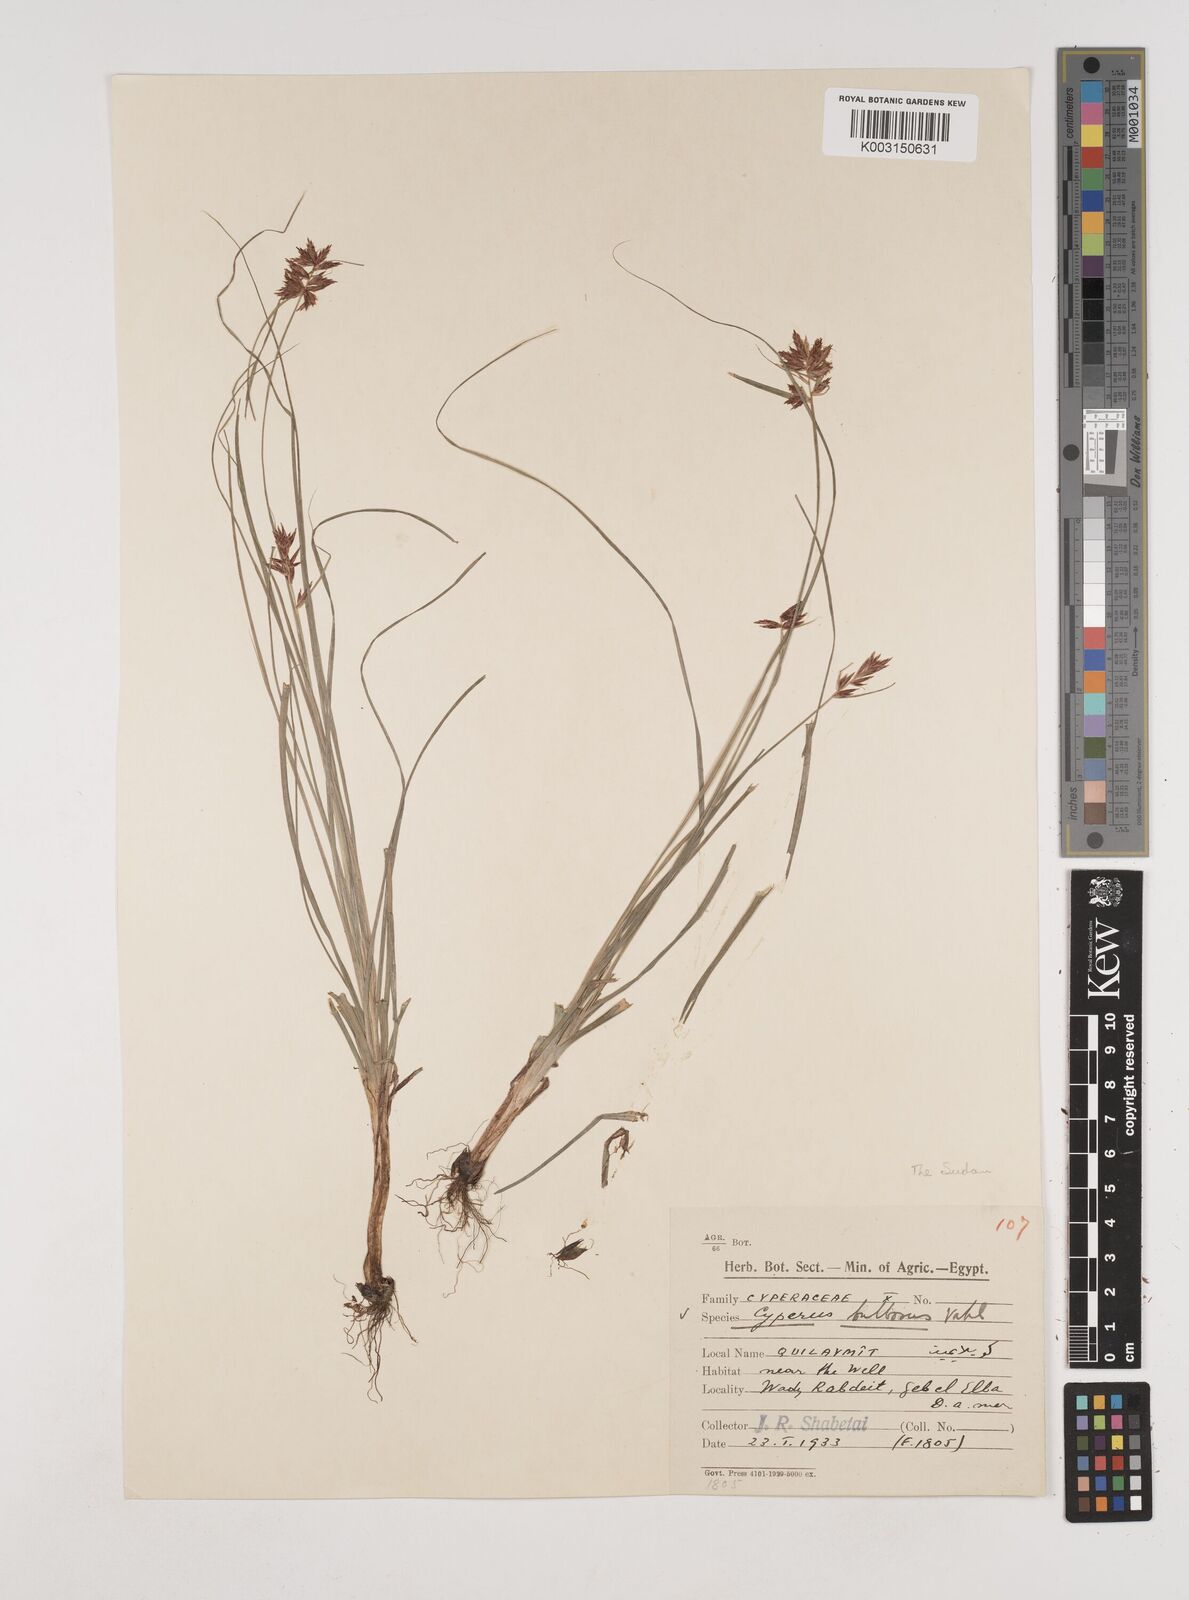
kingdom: Plantae
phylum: Tracheophyta
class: Liliopsida
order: Poales
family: Cyperaceae
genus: Cyperus
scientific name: Cyperus bulbosus
